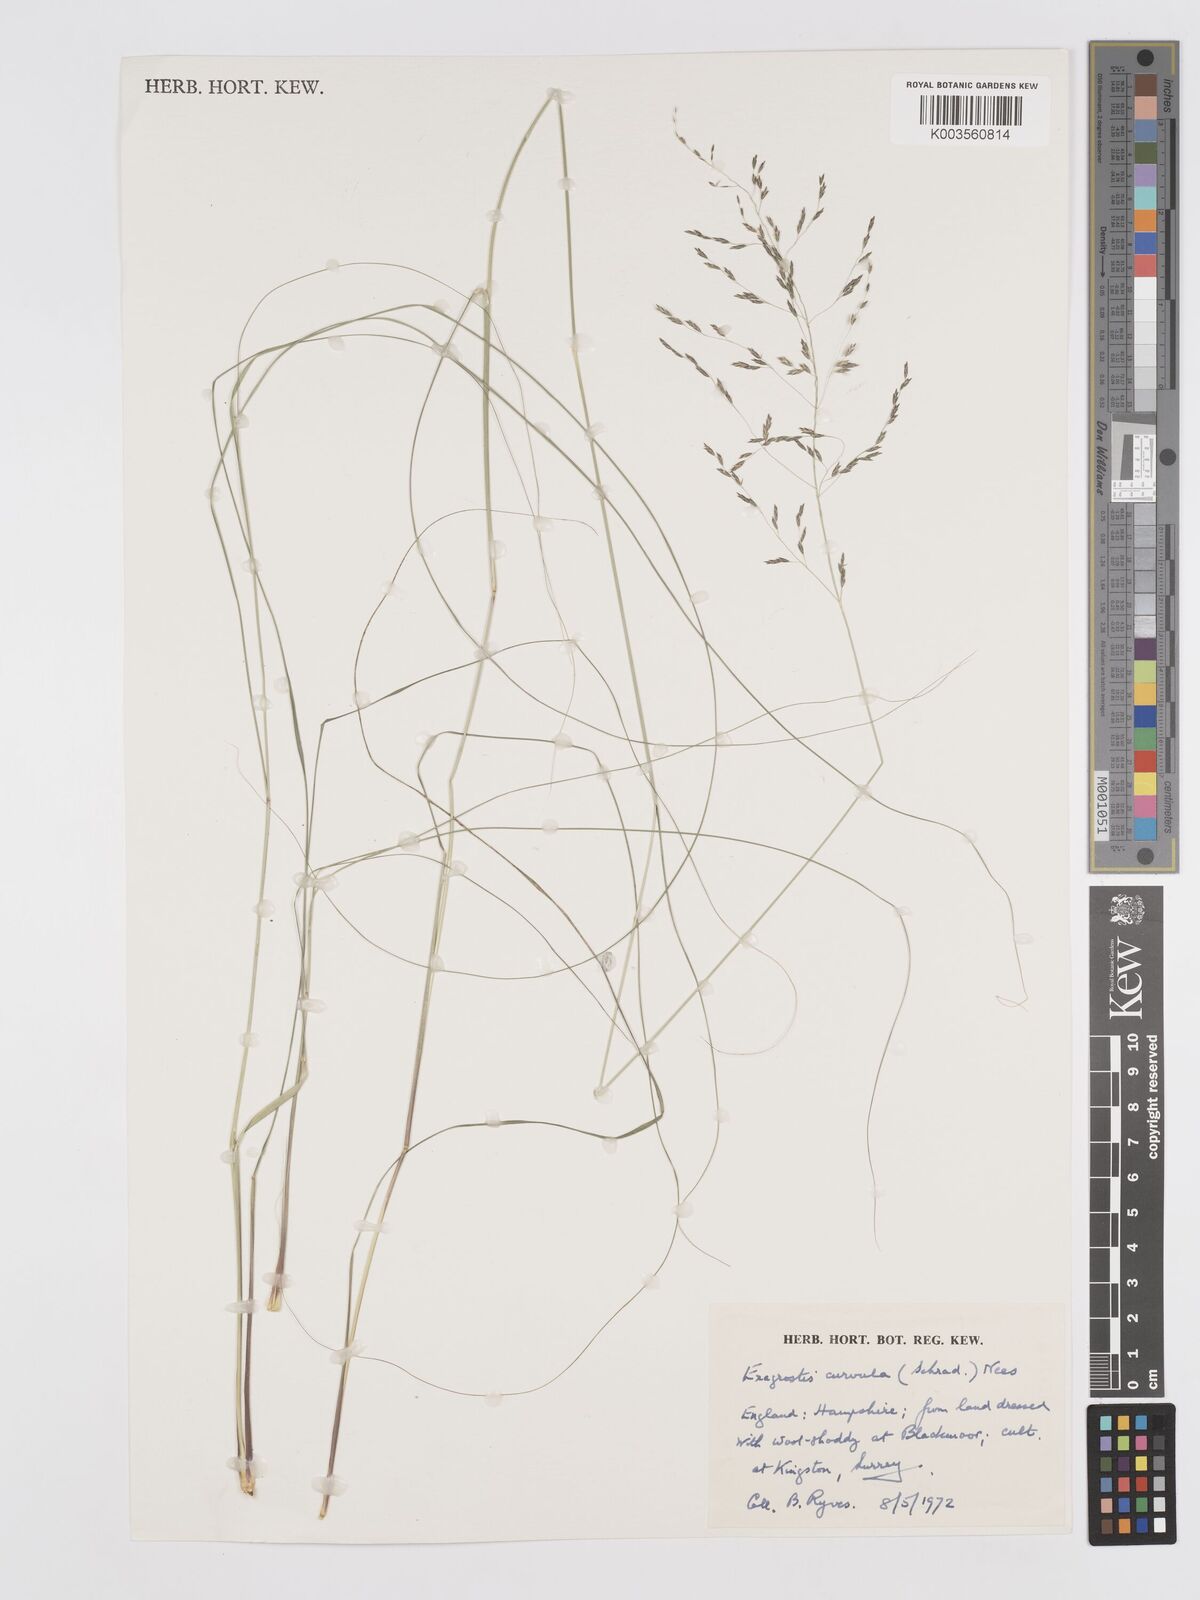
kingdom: Plantae
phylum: Tracheophyta
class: Liliopsida
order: Poales
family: Poaceae
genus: Eragrostis
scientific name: Eragrostis curvula
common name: African love-grass
